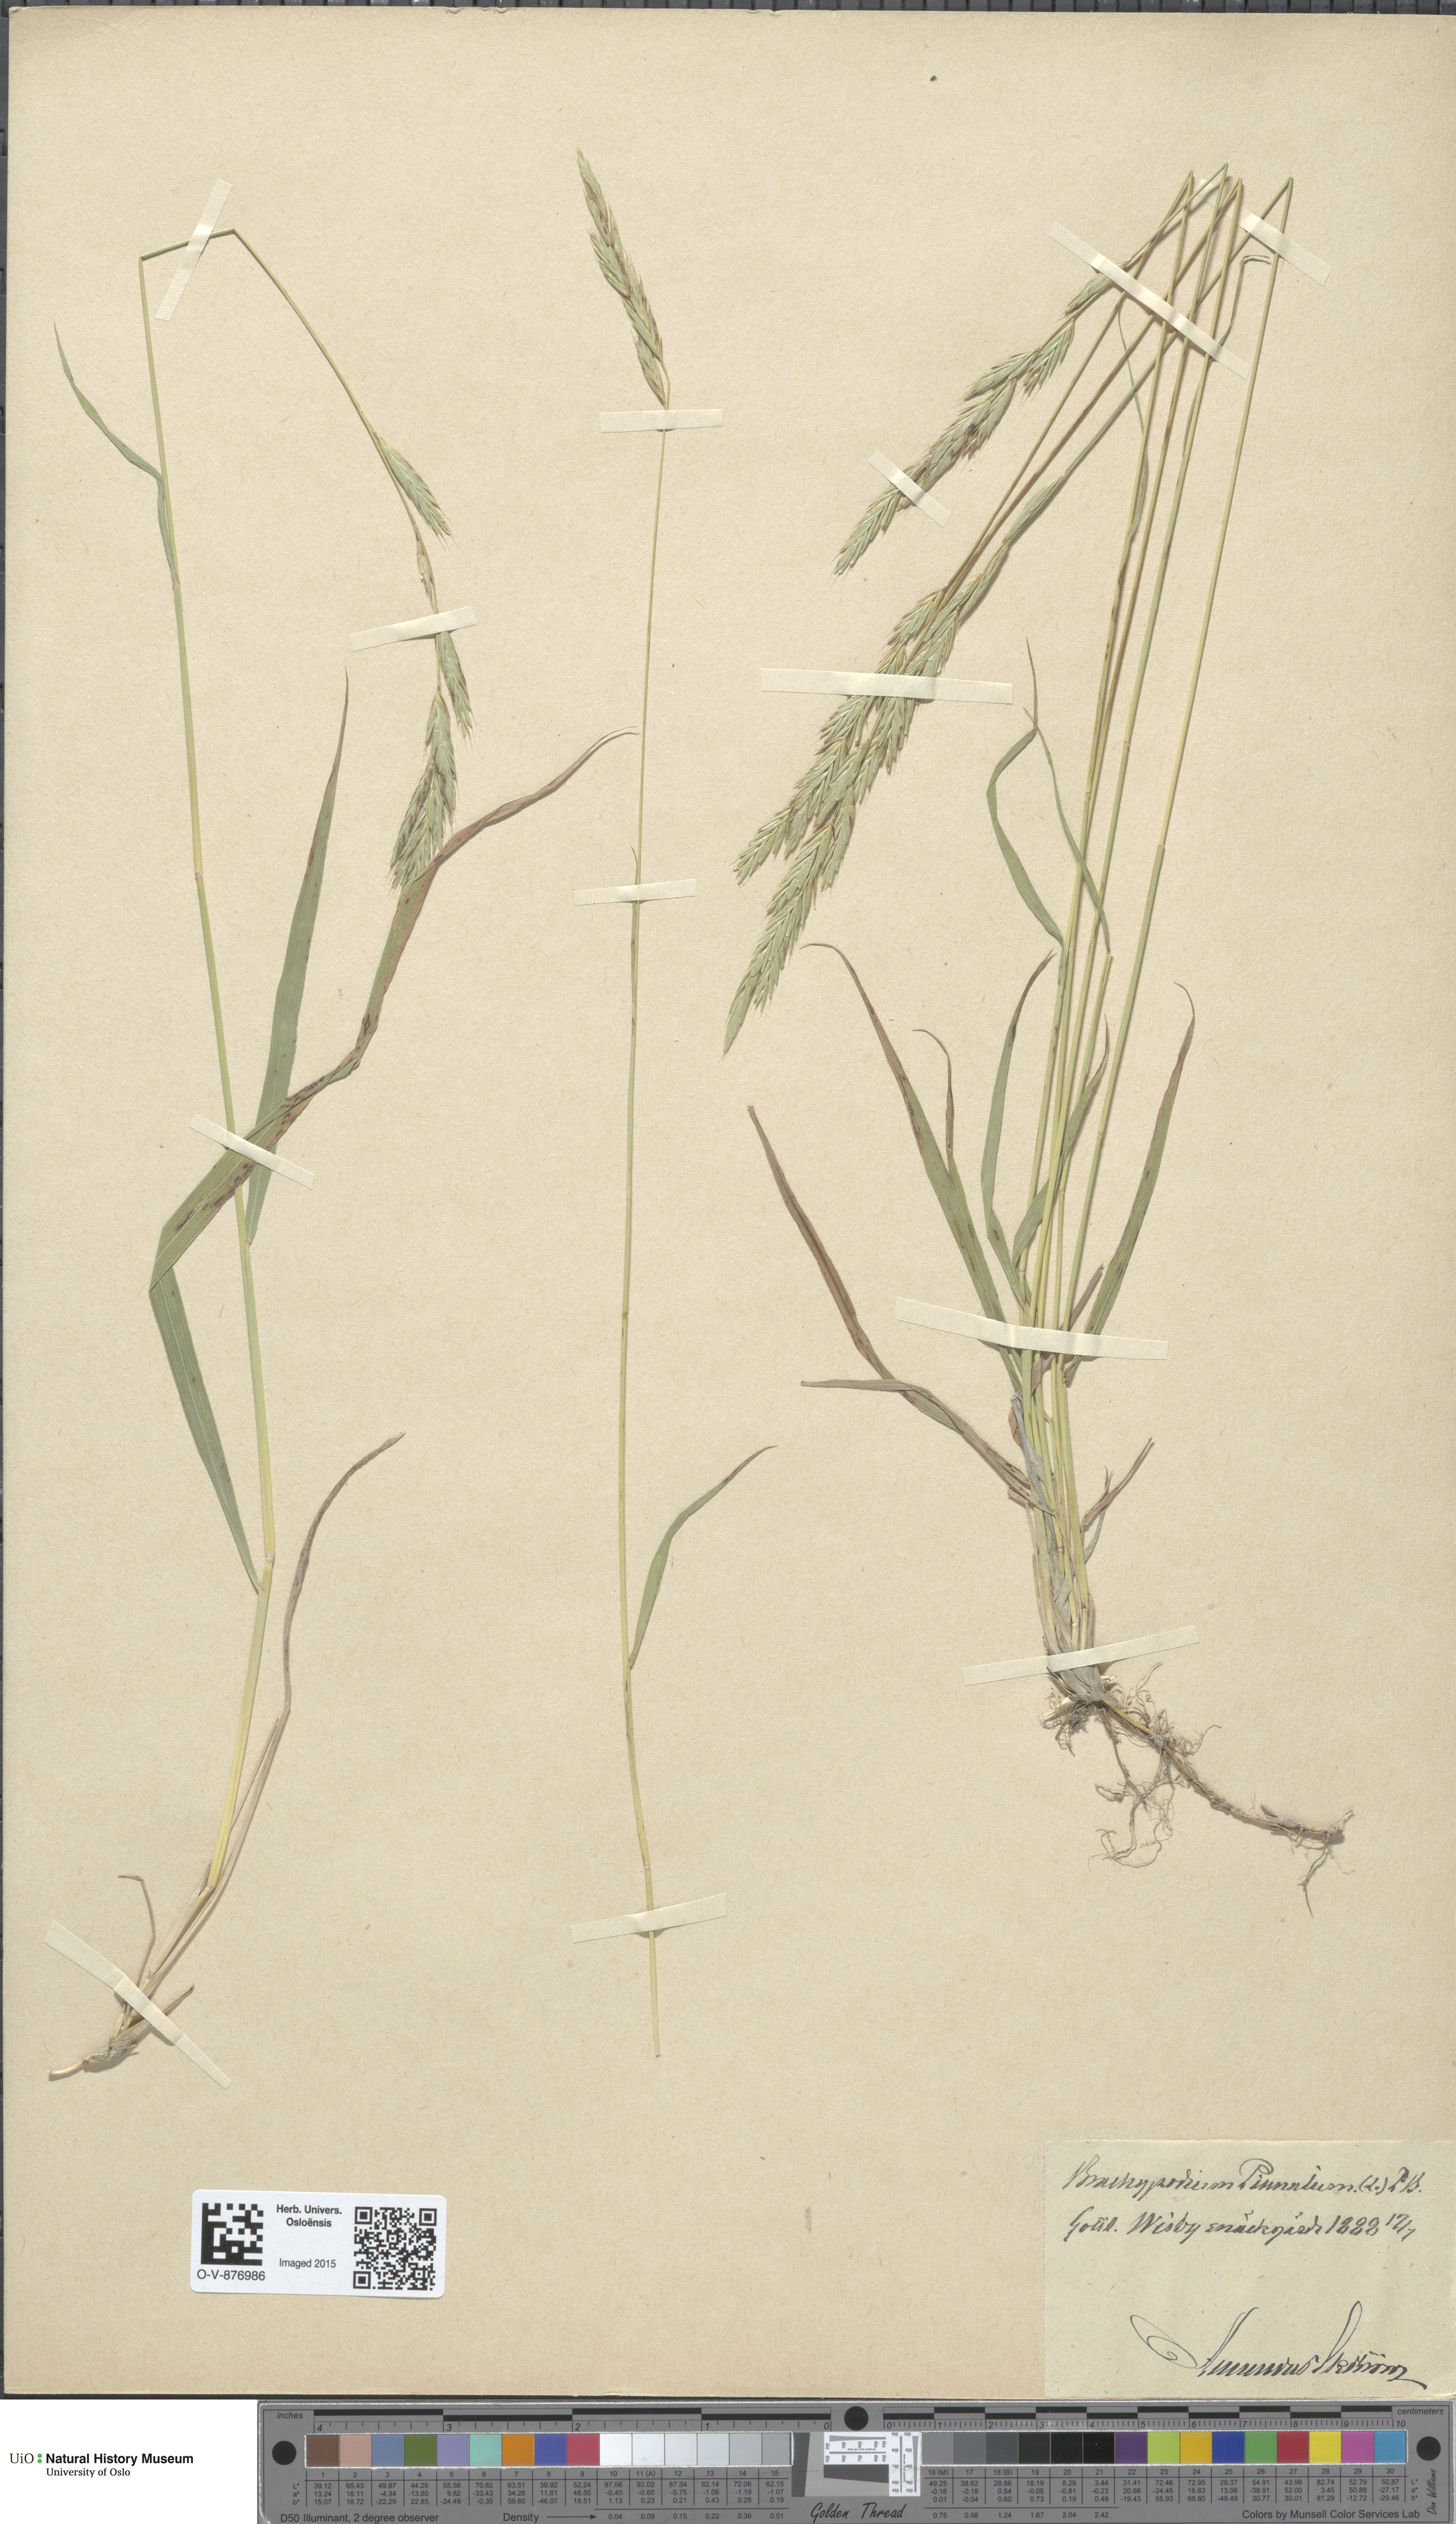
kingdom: Plantae
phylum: Tracheophyta
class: Liliopsida
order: Poales
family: Poaceae
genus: Brachypodium
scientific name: Brachypodium pinnatum
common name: Tor grass
